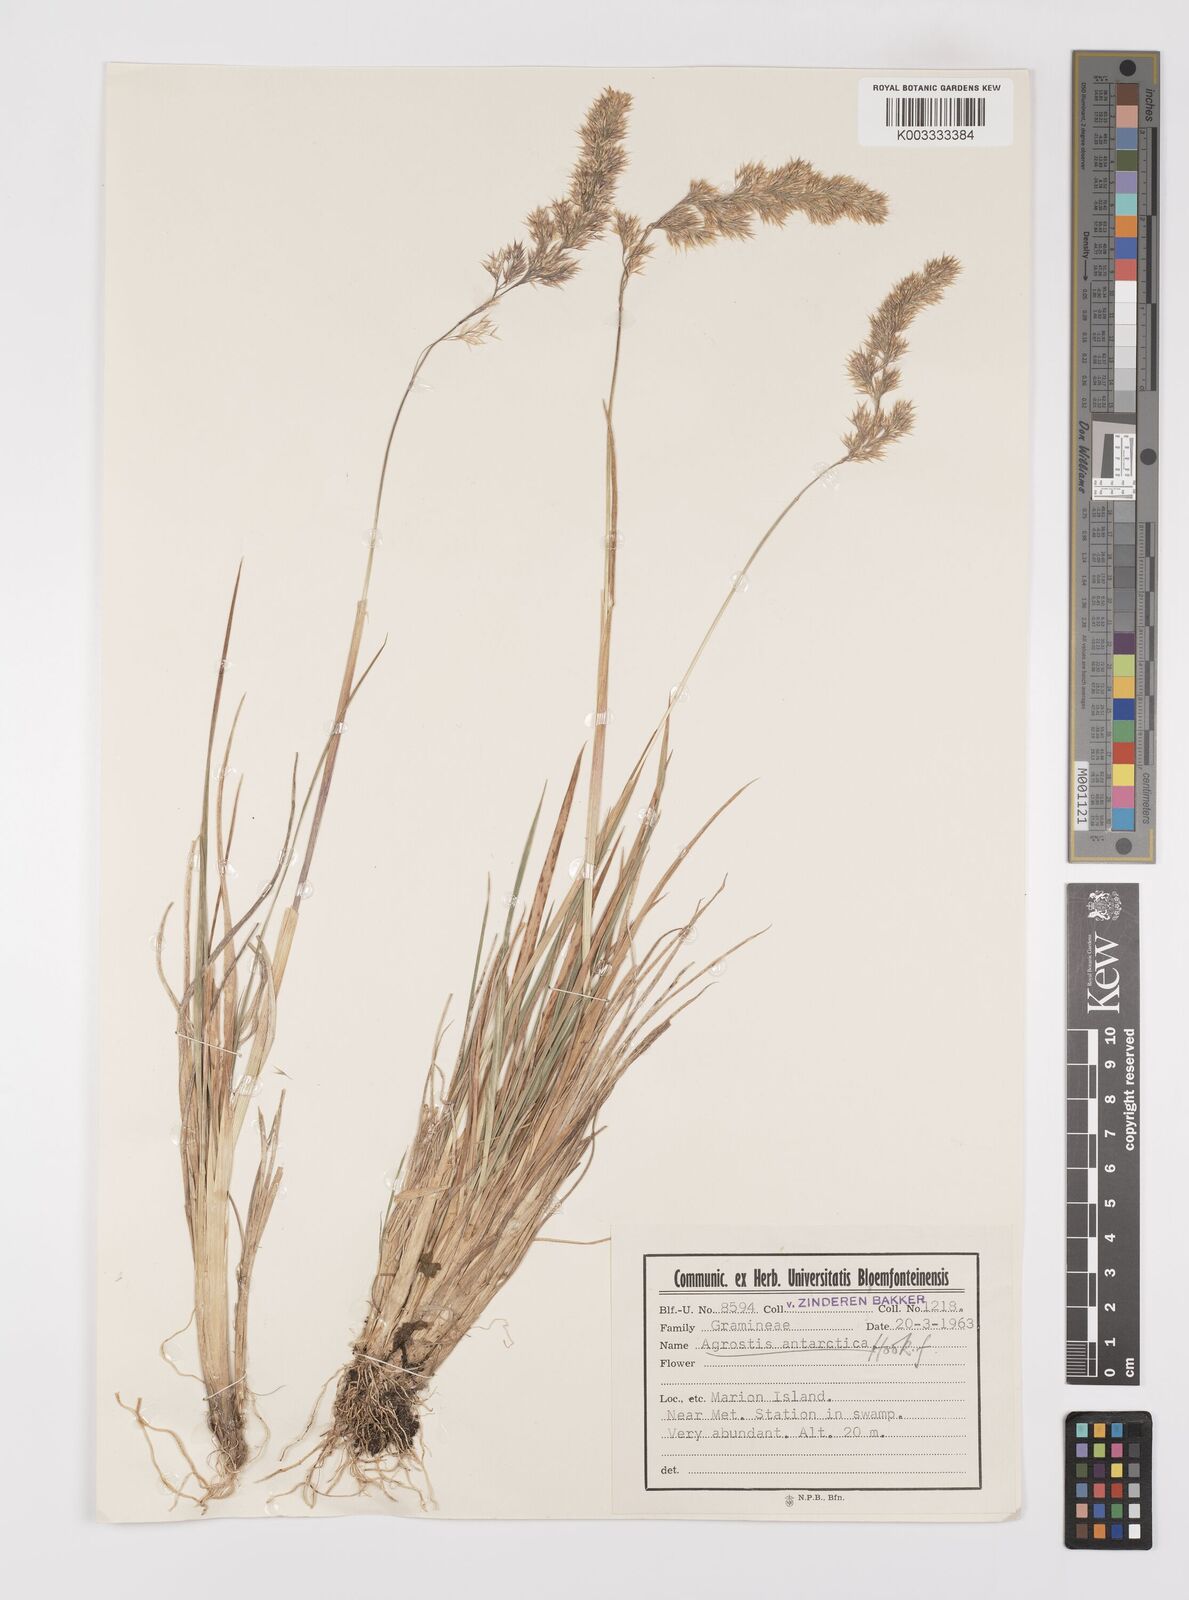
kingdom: Plantae
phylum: Tracheophyta
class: Liliopsida
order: Poales
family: Poaceae
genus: Polypogon
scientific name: Polypogon magellanicus
